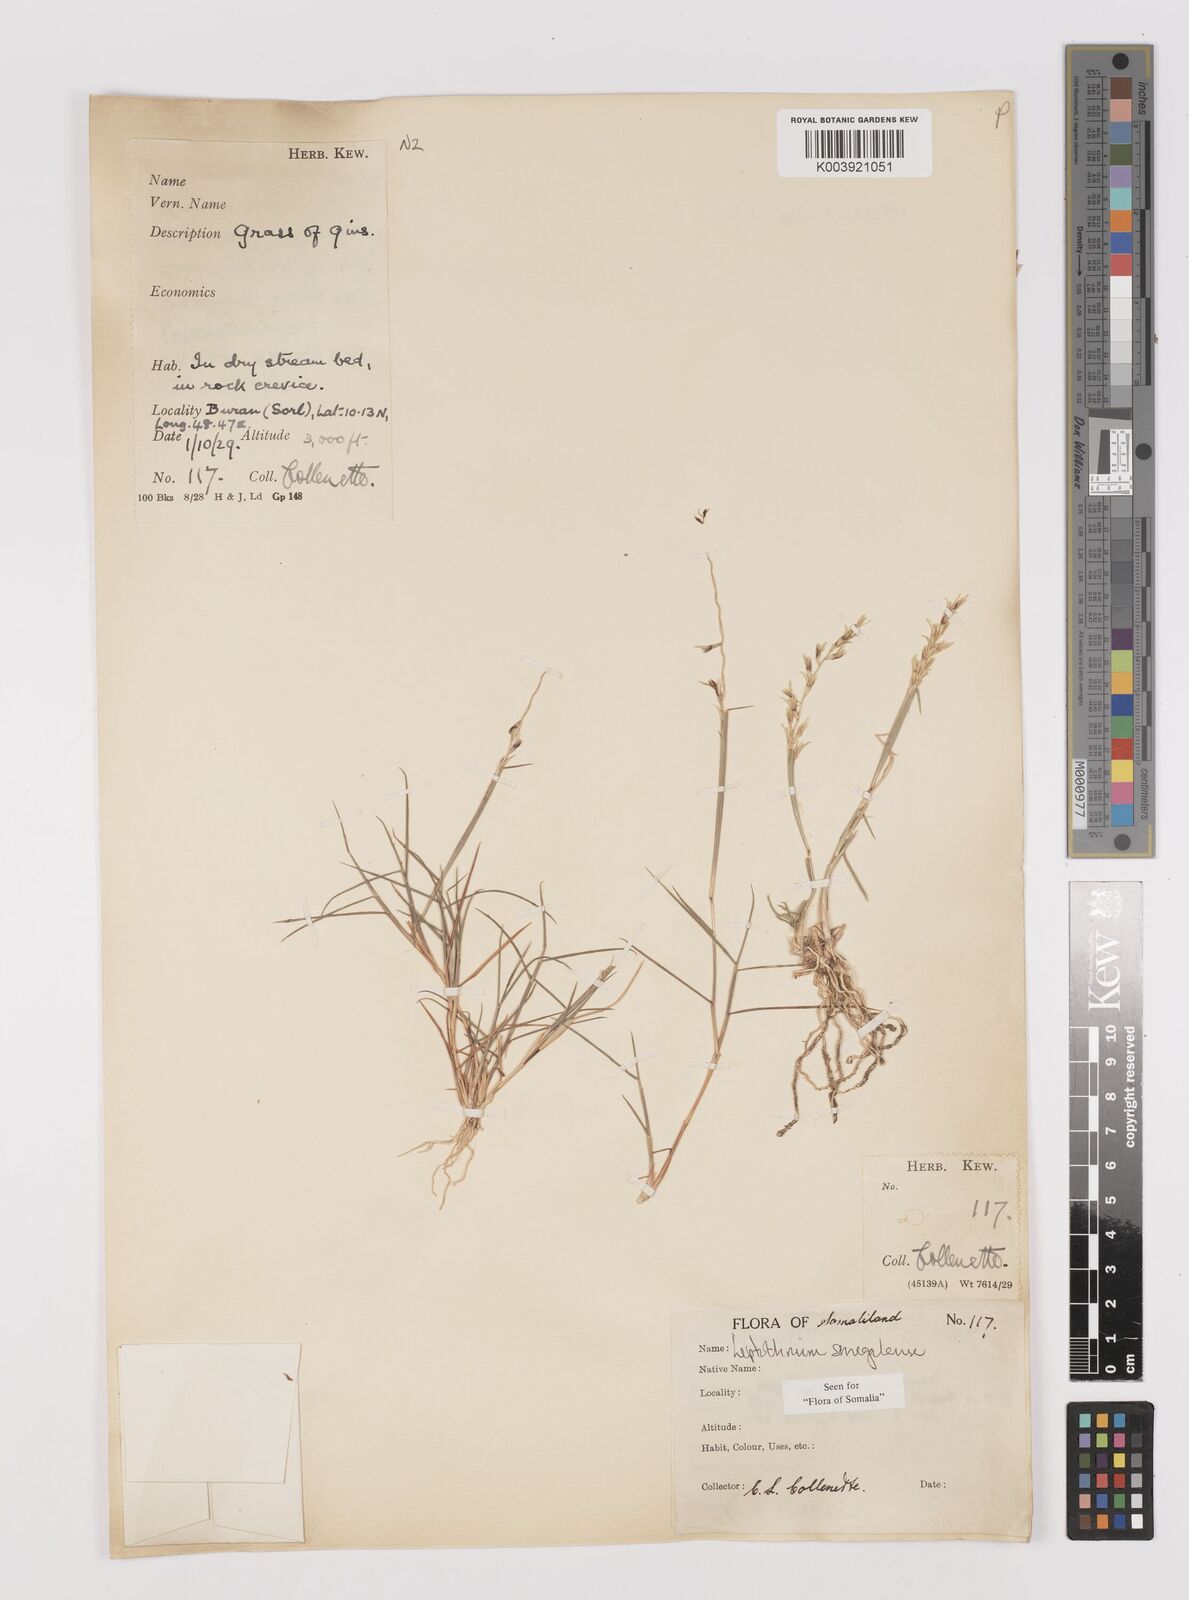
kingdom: Plantae
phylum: Tracheophyta
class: Liliopsida
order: Poales
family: Poaceae
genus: Leptothrium
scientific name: Leptothrium senegalense
